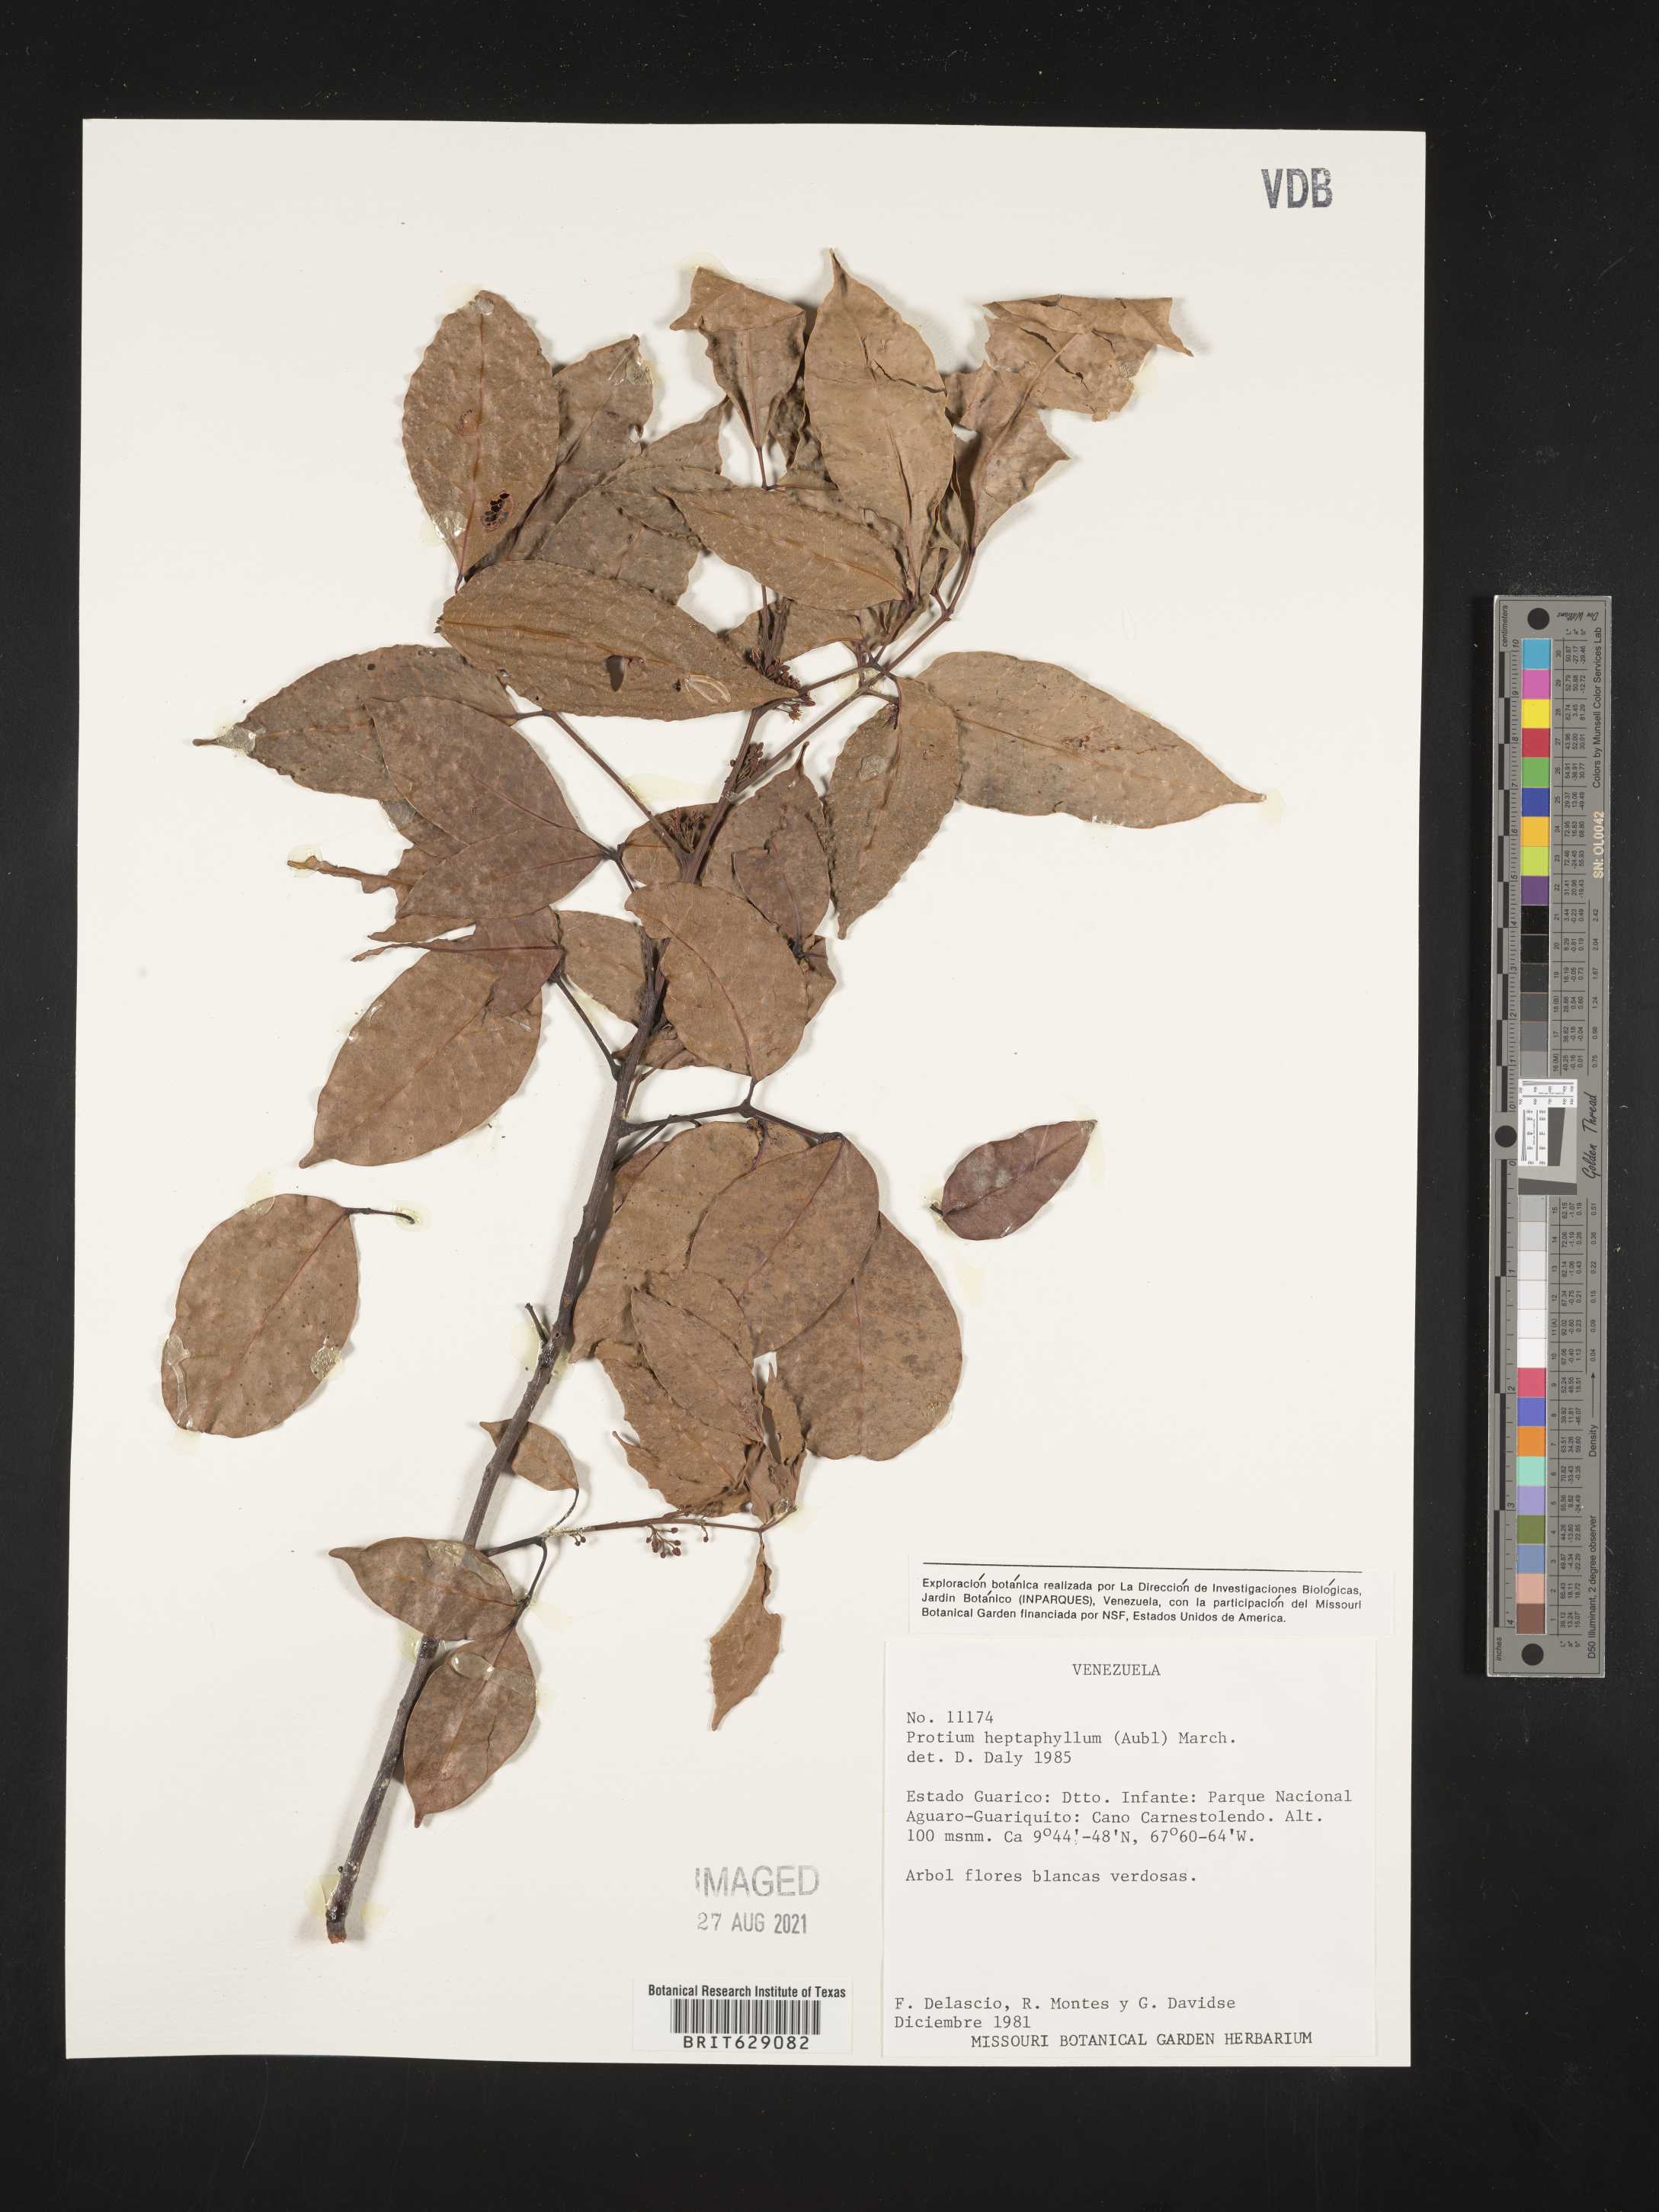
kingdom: Plantae
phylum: Tracheophyta
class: Magnoliopsida
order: Sapindales
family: Burseraceae
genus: Protium
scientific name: Protium heptaphyllum
